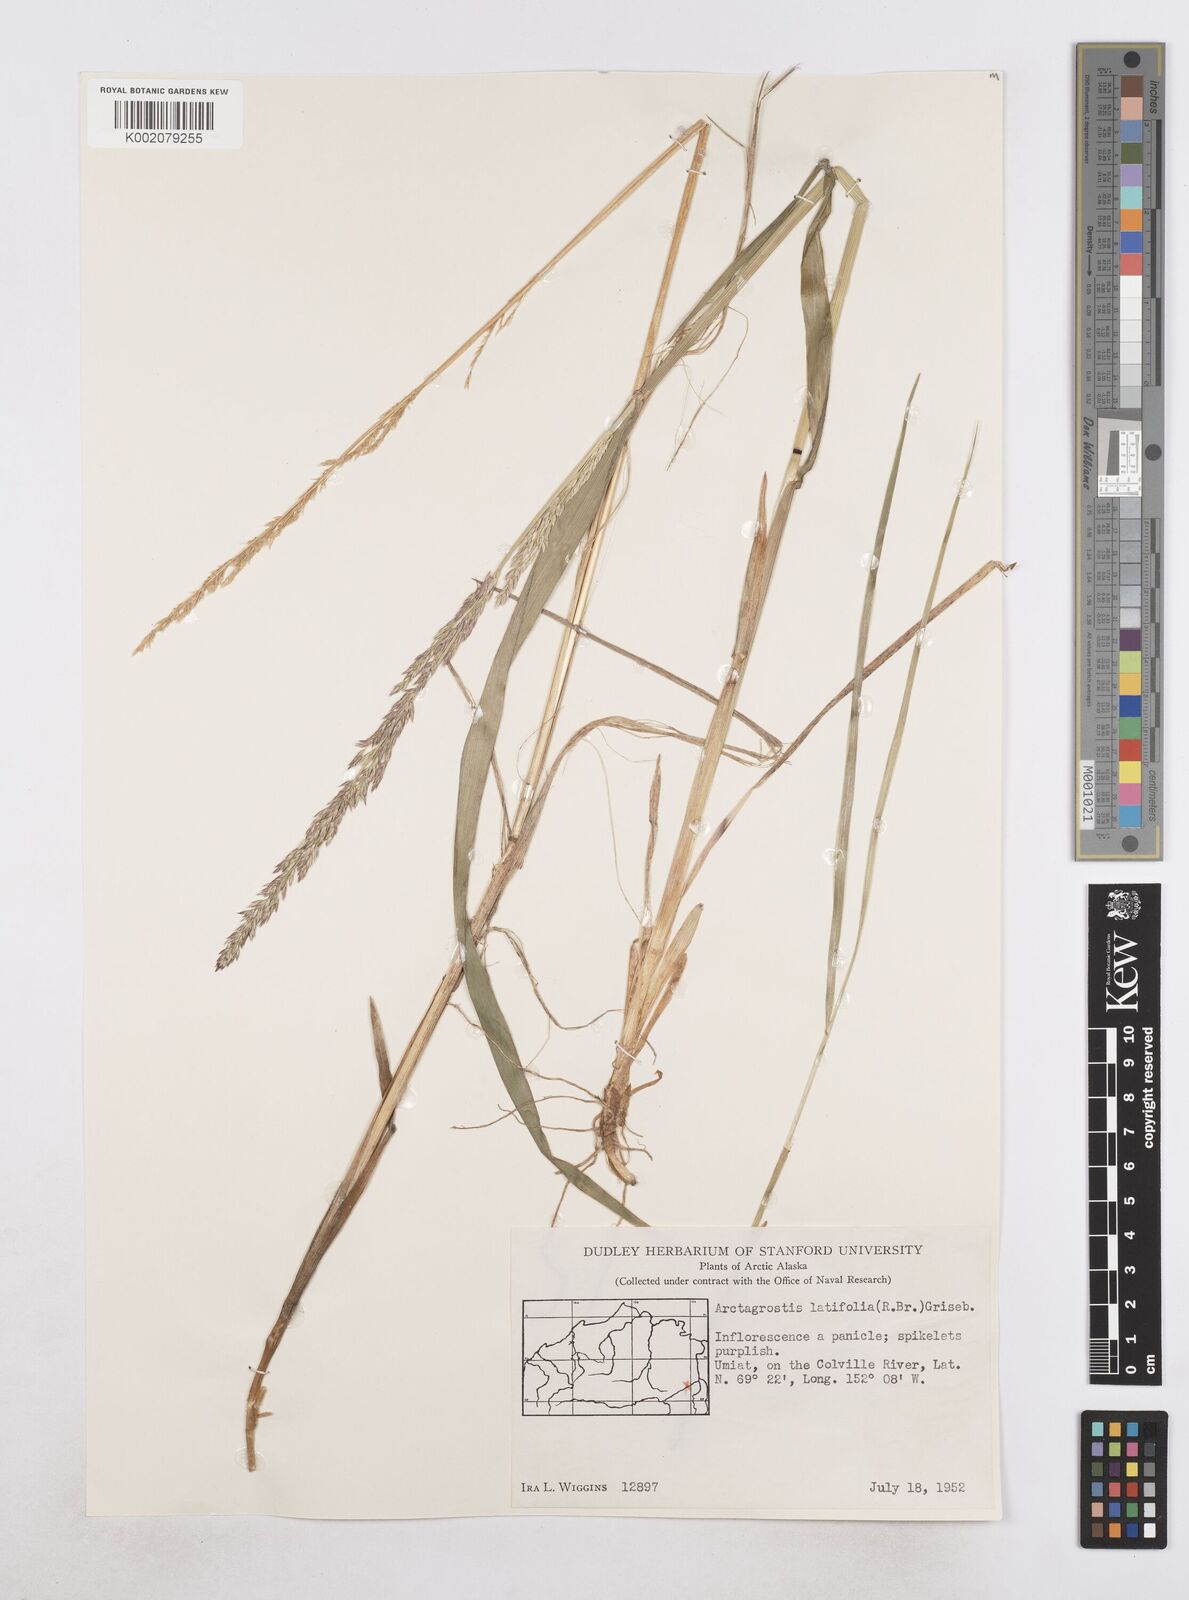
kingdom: Plantae
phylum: Tracheophyta
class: Liliopsida
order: Poales
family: Poaceae
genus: Arctagrostis
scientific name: Arctagrostis latifolia
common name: Arctic grass
